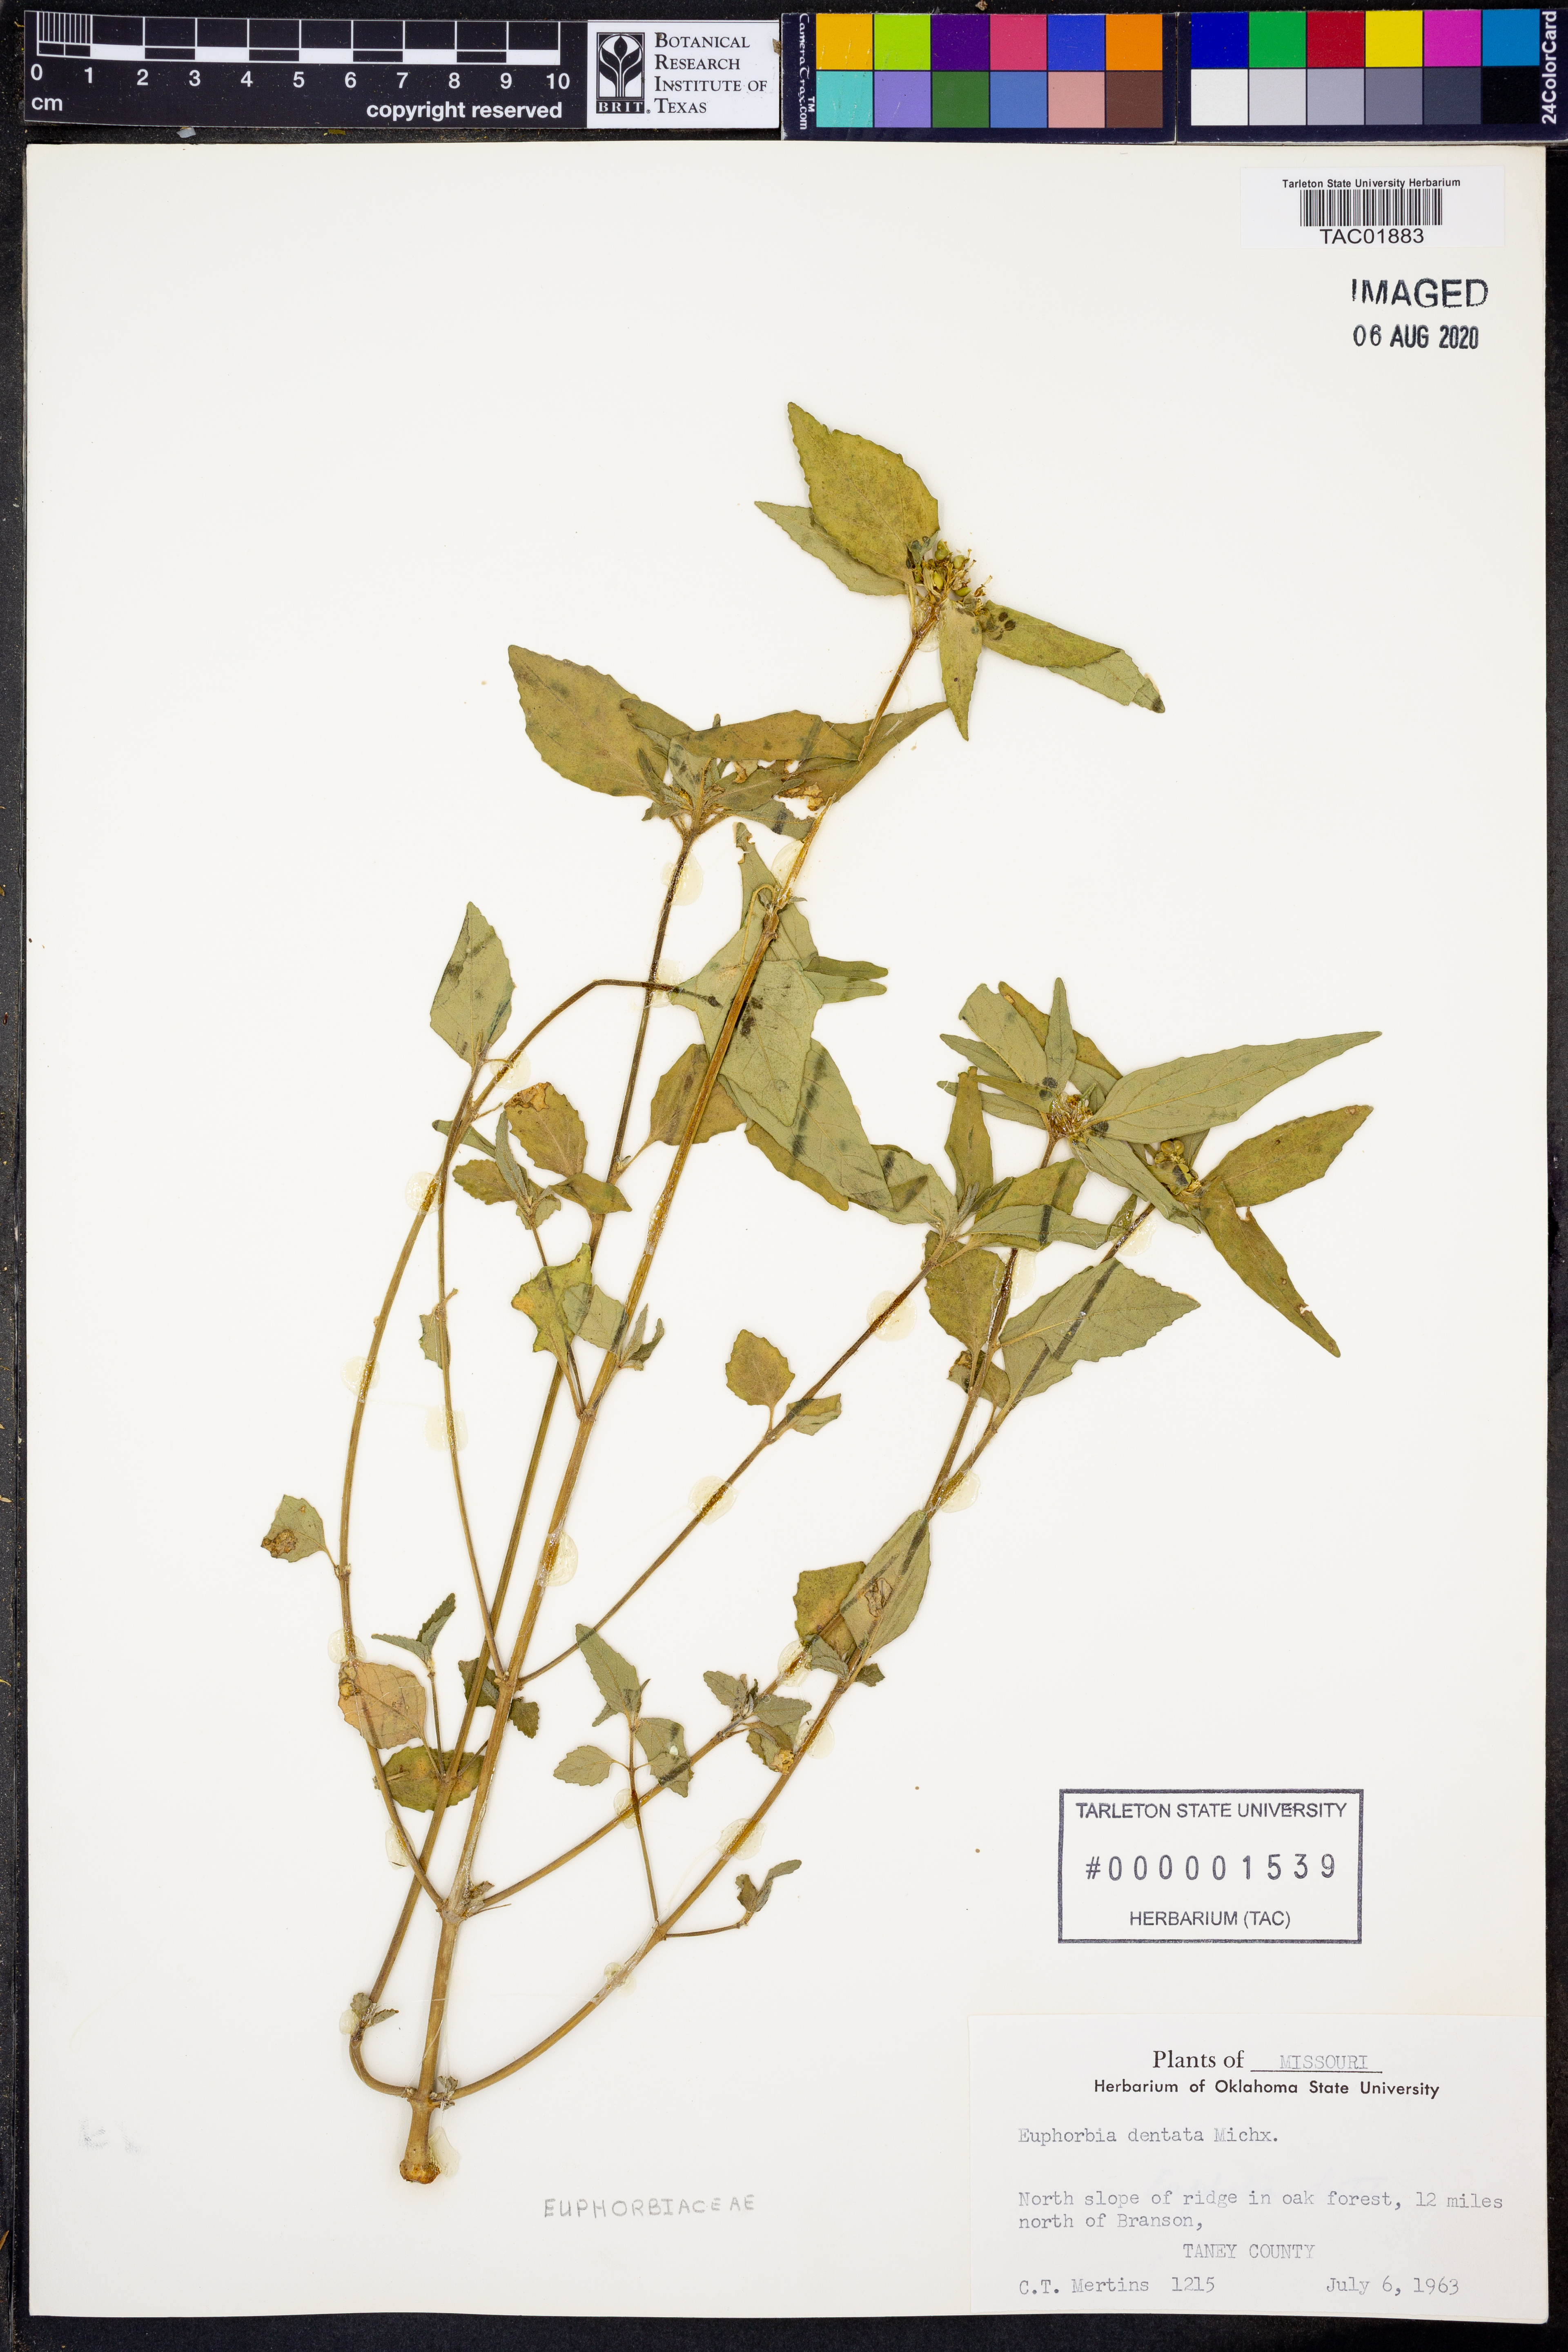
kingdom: Plantae
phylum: Tracheophyta
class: Magnoliopsida
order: Malpighiales
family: Euphorbiaceae
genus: Euphorbia
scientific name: Euphorbia dentata
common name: Dentate spurge
